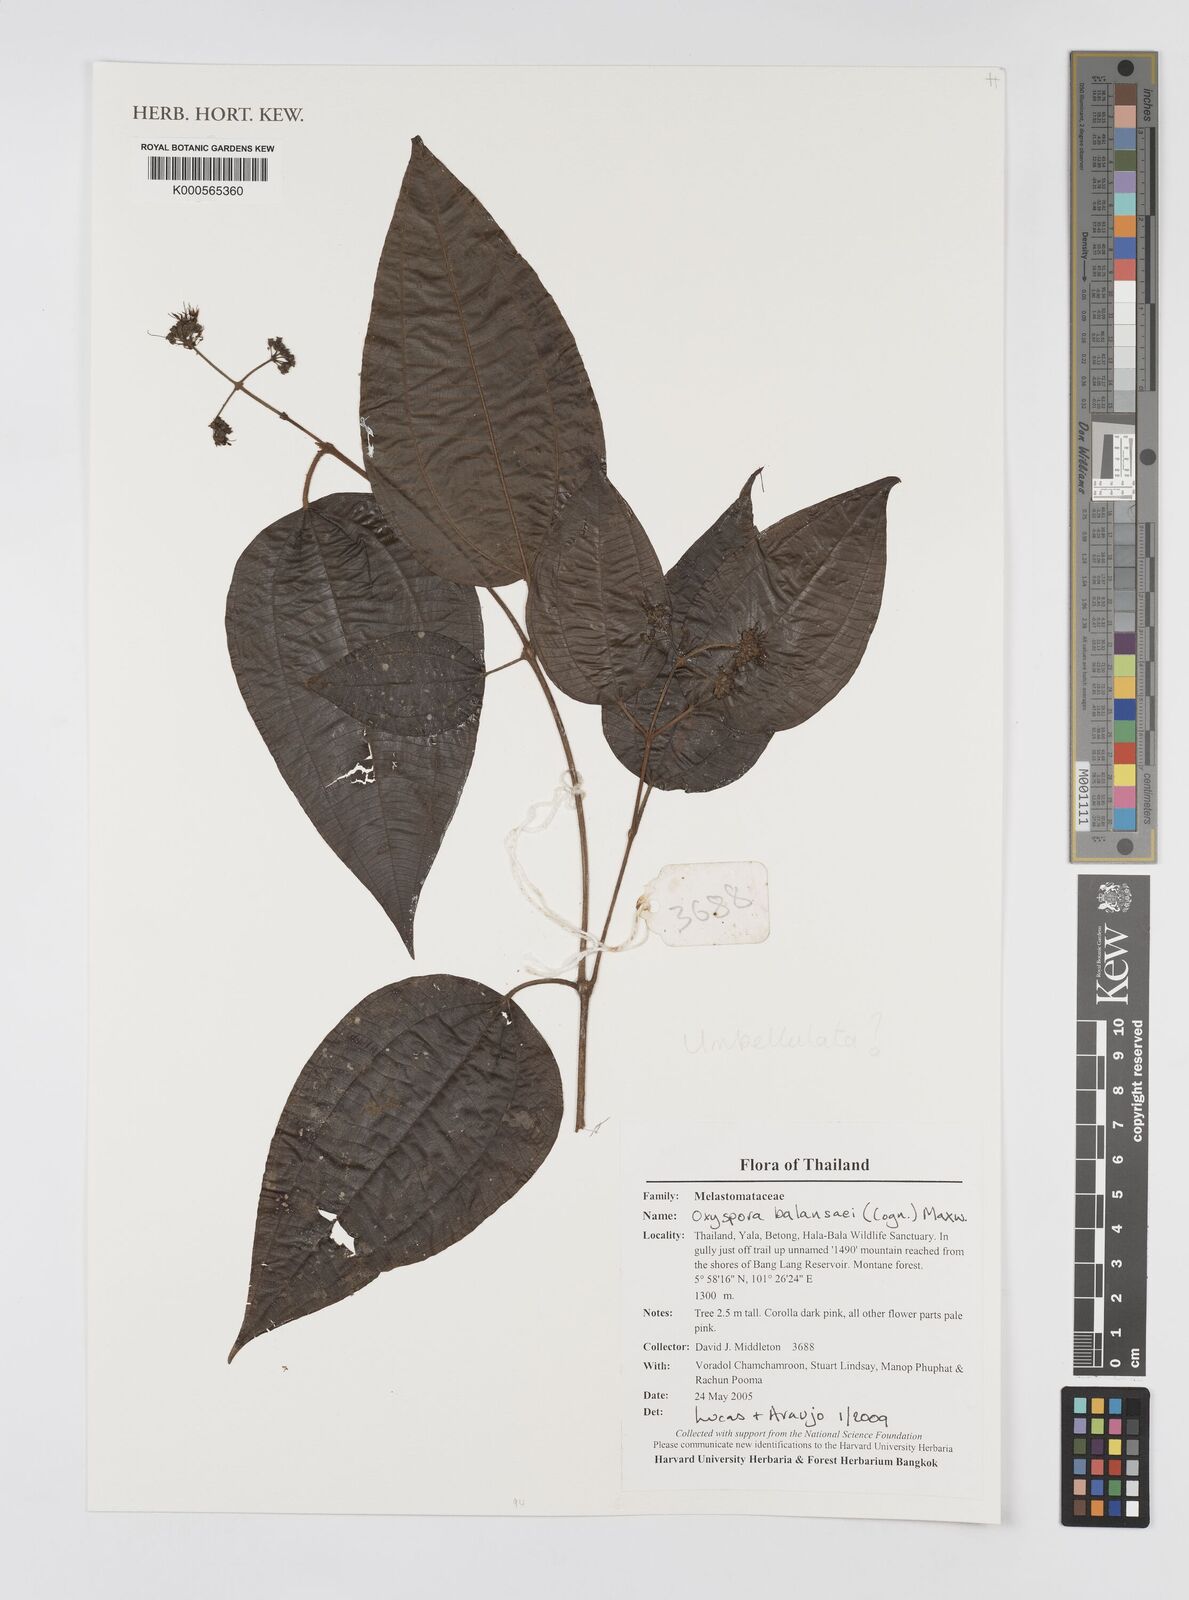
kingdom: Plantae
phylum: Tracheophyta
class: Magnoliopsida
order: Myrtales
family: Melastomataceae
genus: Oxyspora
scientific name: Oxyspora
